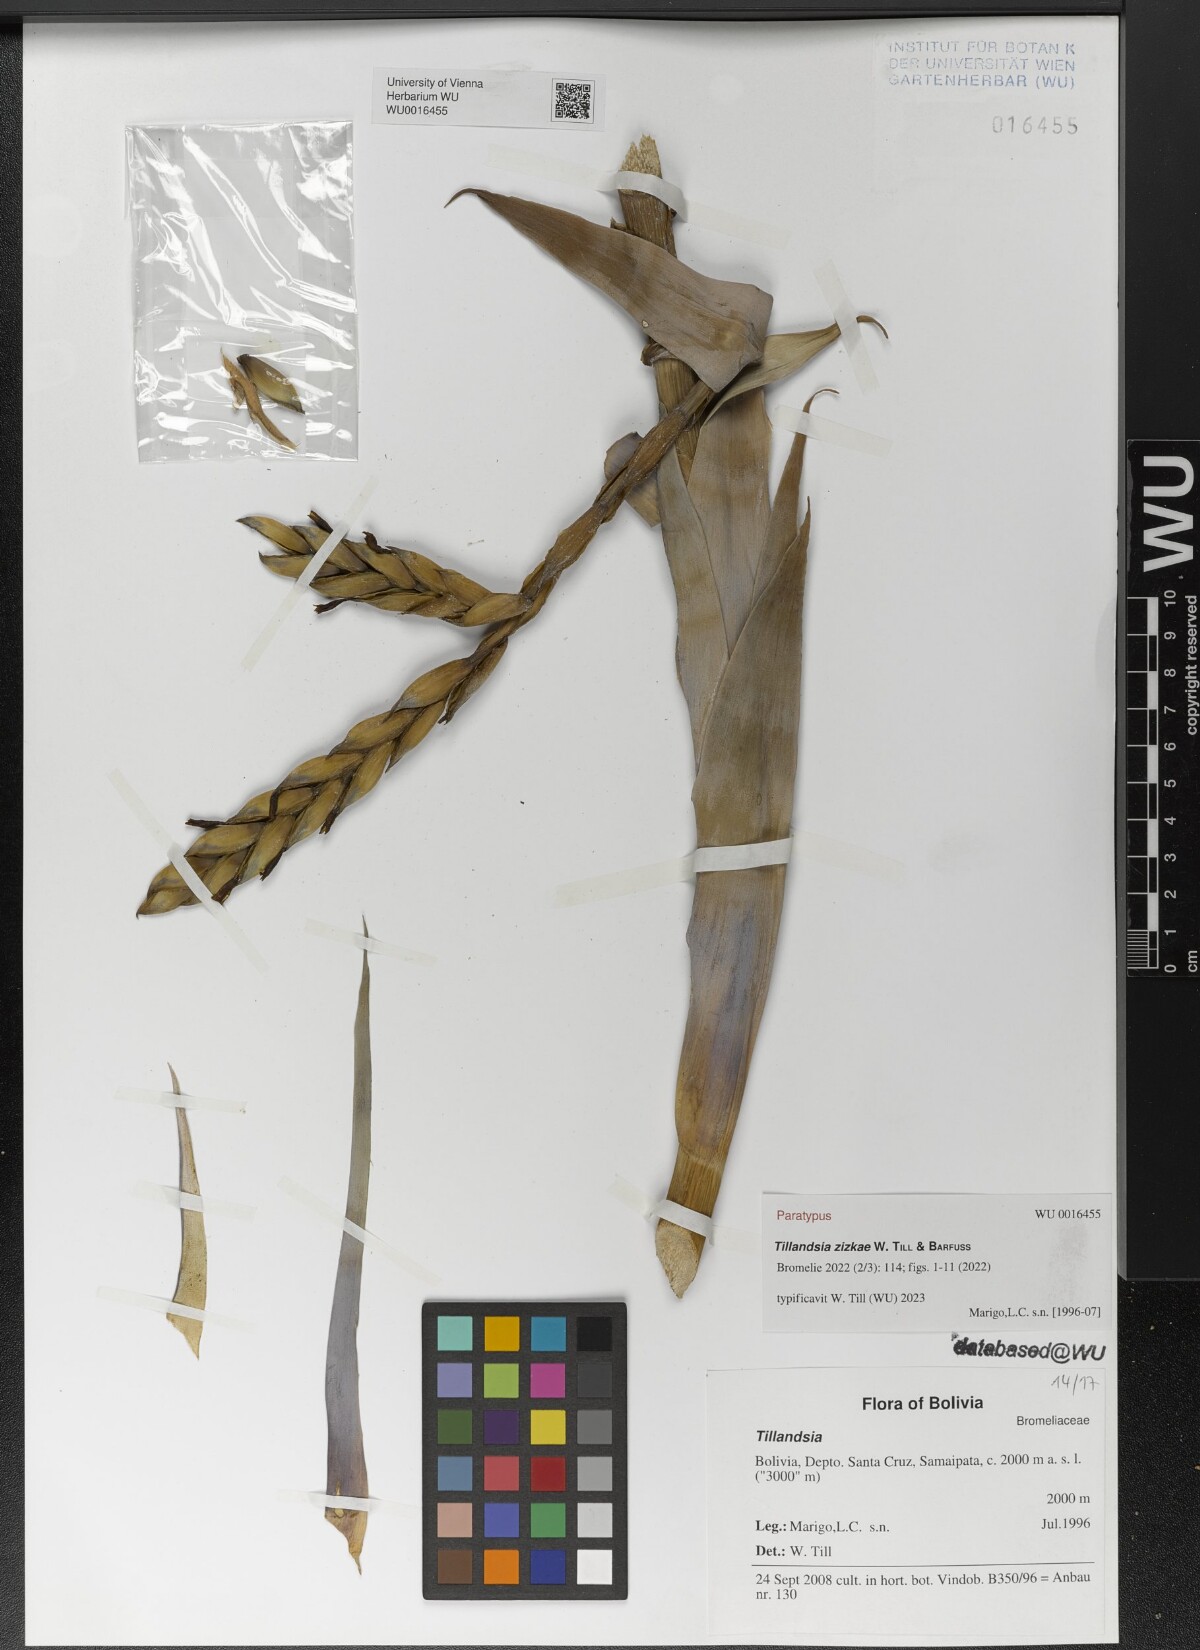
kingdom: Plantae
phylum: Tracheophyta
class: Liliopsida
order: Poales
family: Bromeliaceae
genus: Tillandsia
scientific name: Tillandsia
